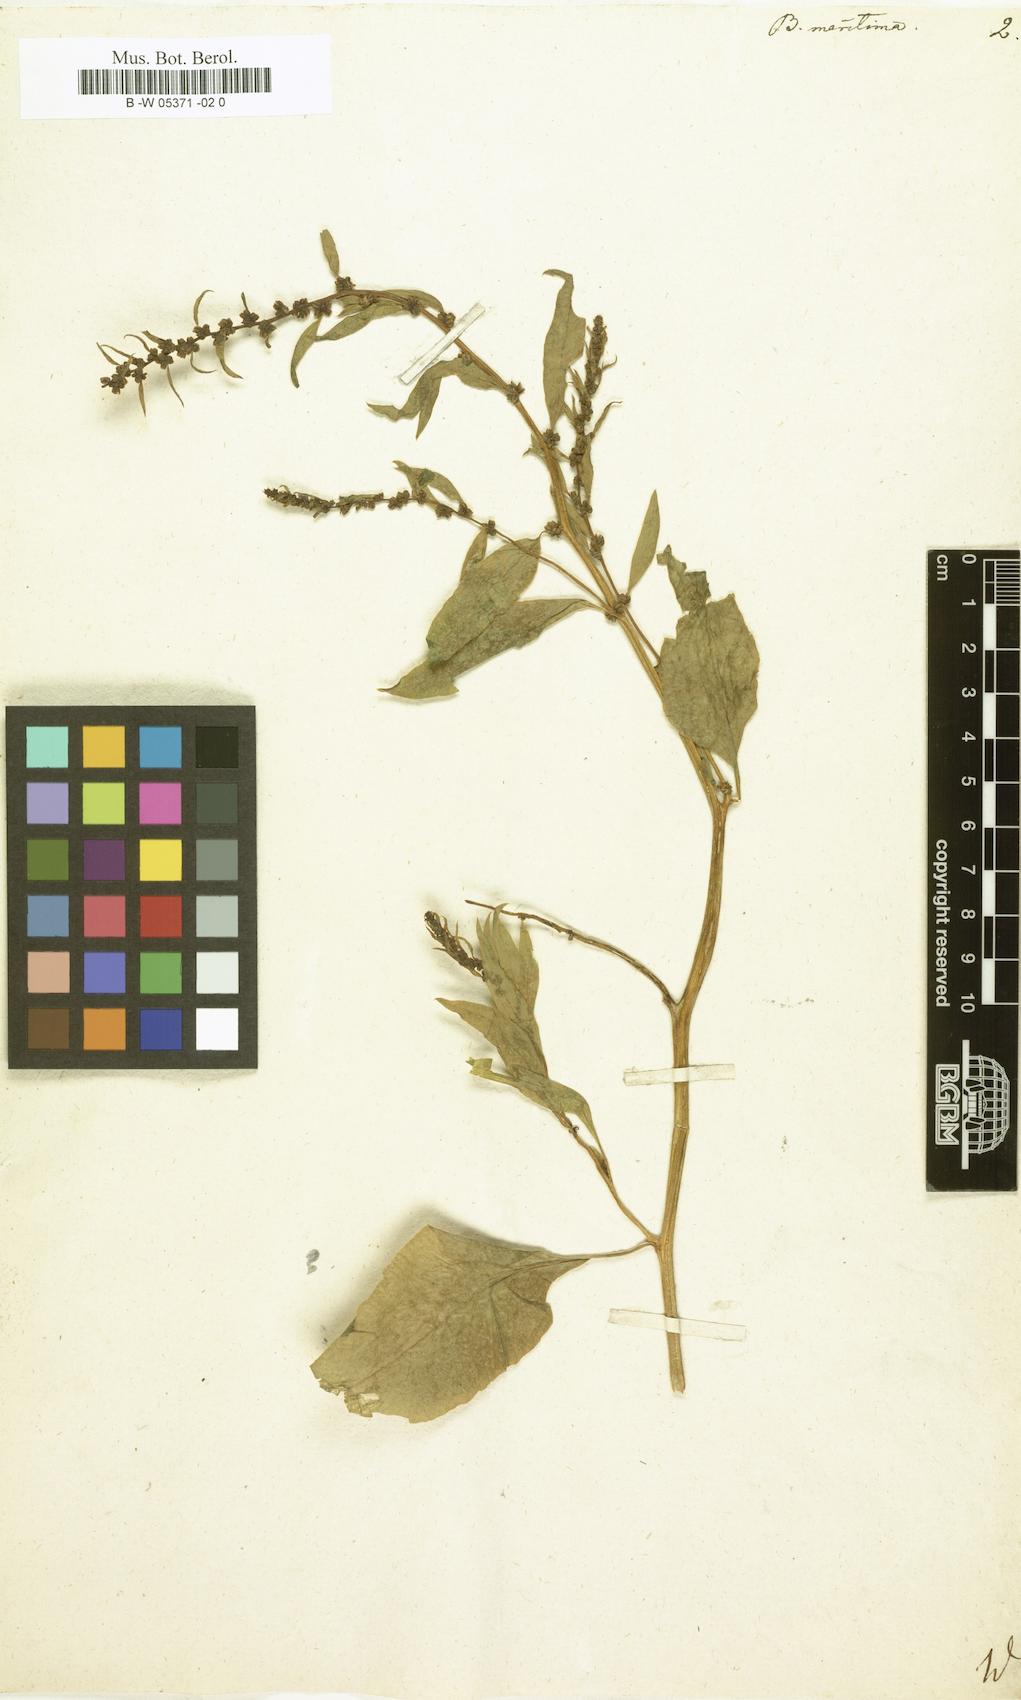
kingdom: Plantae
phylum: Tracheophyta
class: Magnoliopsida
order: Caryophyllales
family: Amaranthaceae
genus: Beta
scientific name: Beta maritima
